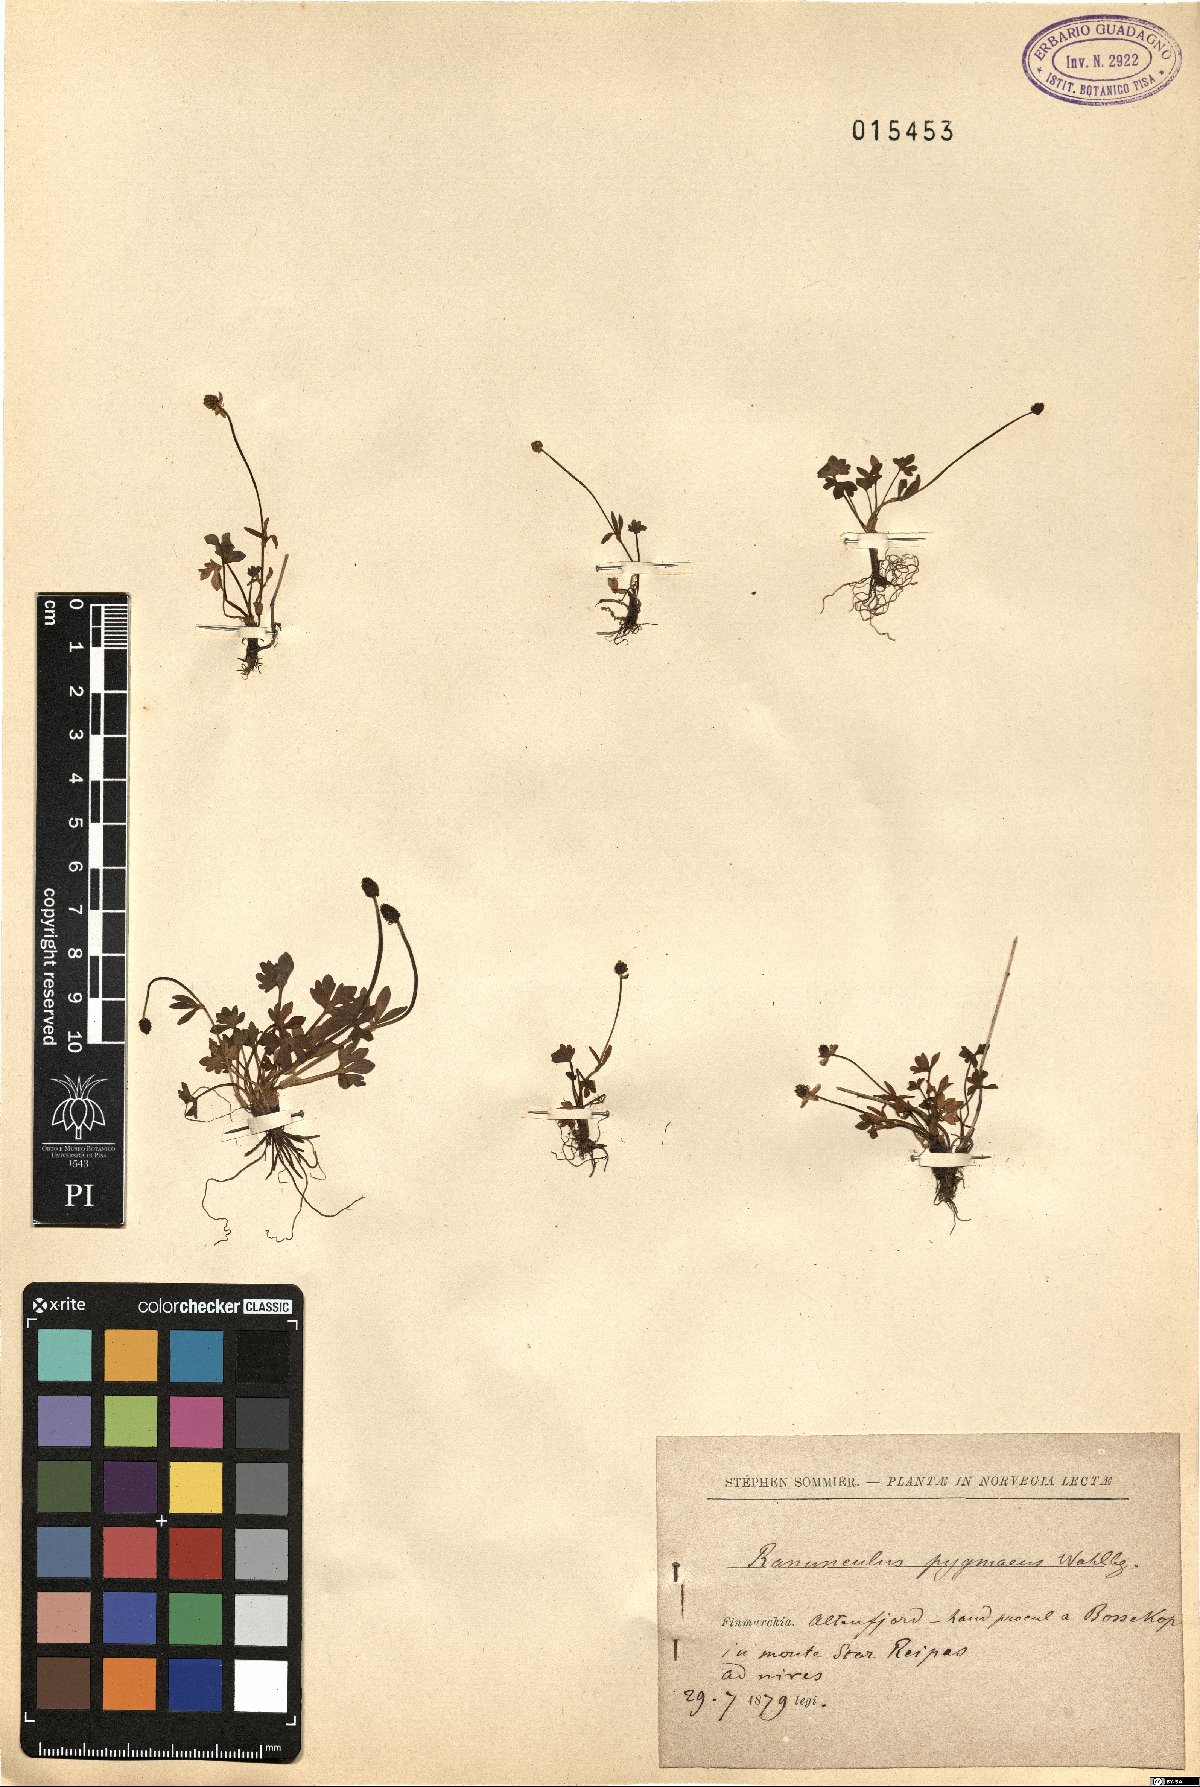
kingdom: Plantae
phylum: Tracheophyta
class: Magnoliopsida
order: Ranunculales
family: Ranunculaceae
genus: Ranunculus
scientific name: Ranunculus pygmaeus
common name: Dwarf buttercup
